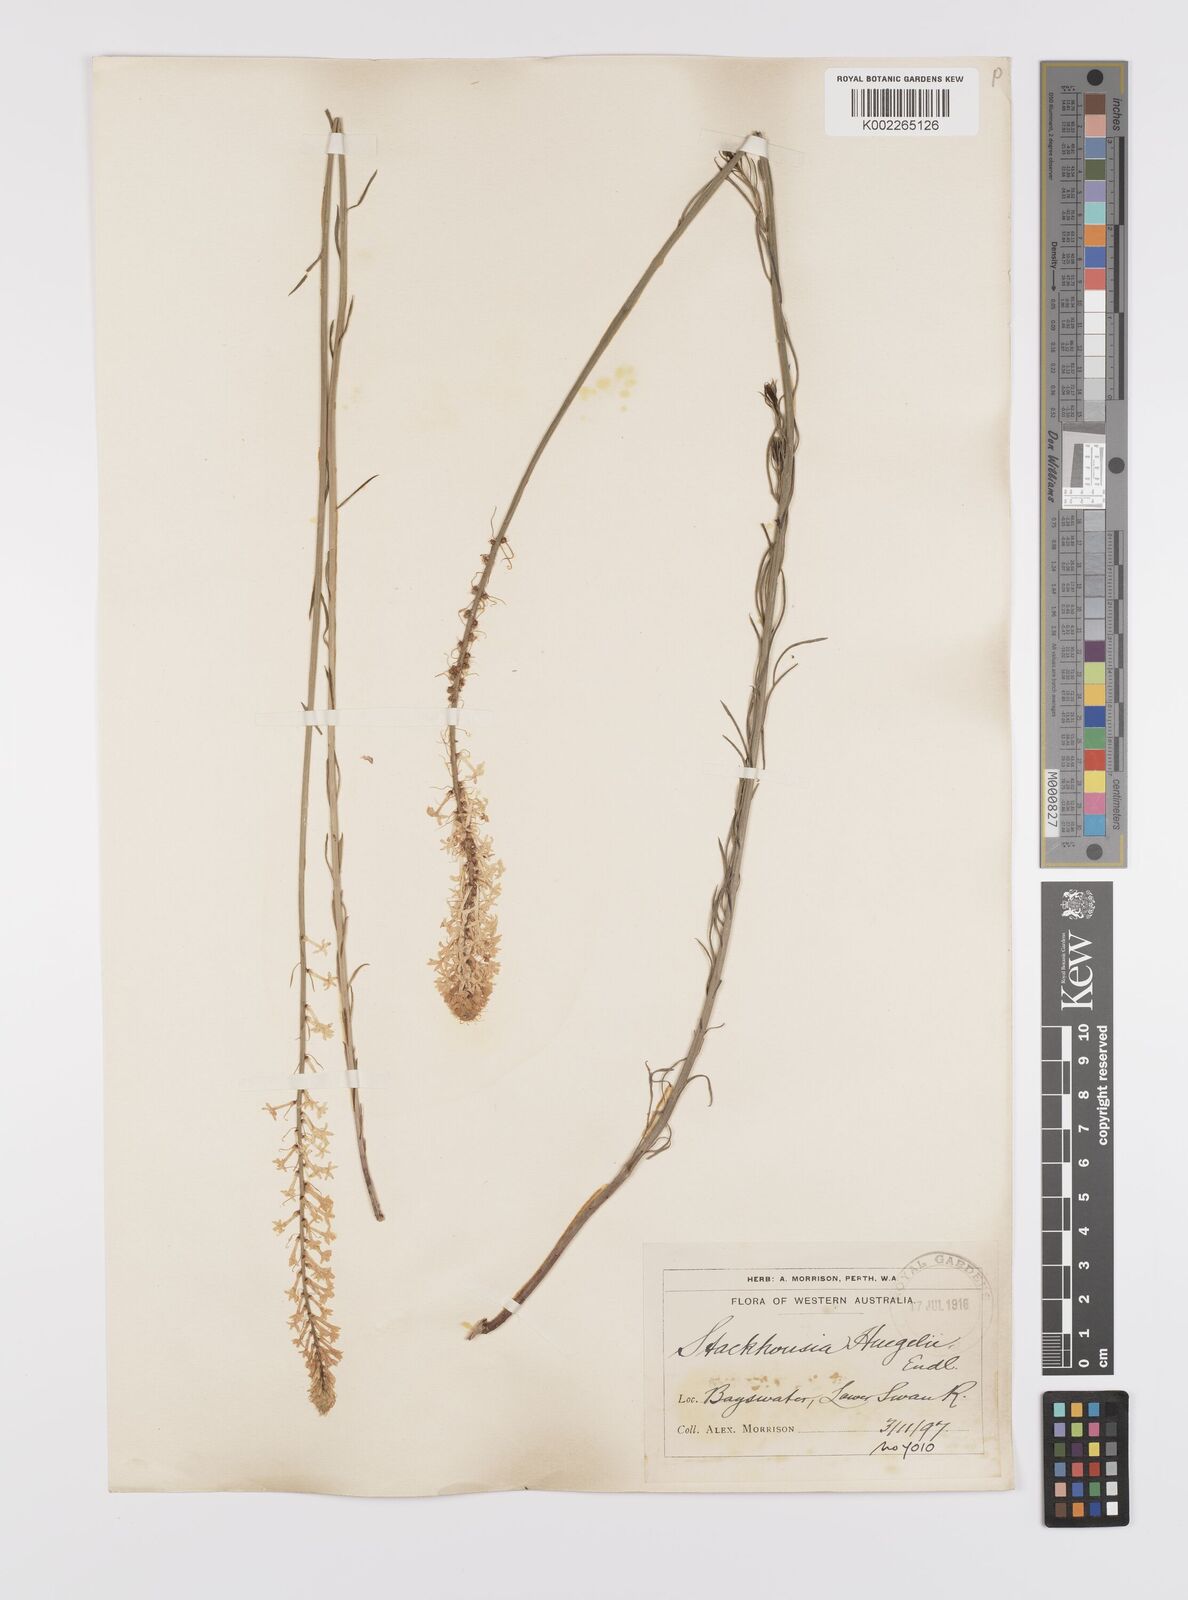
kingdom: Plantae
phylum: Tracheophyta
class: Magnoliopsida
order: Celastrales
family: Celastraceae
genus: Stackhousia
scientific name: Stackhousia monogyna
